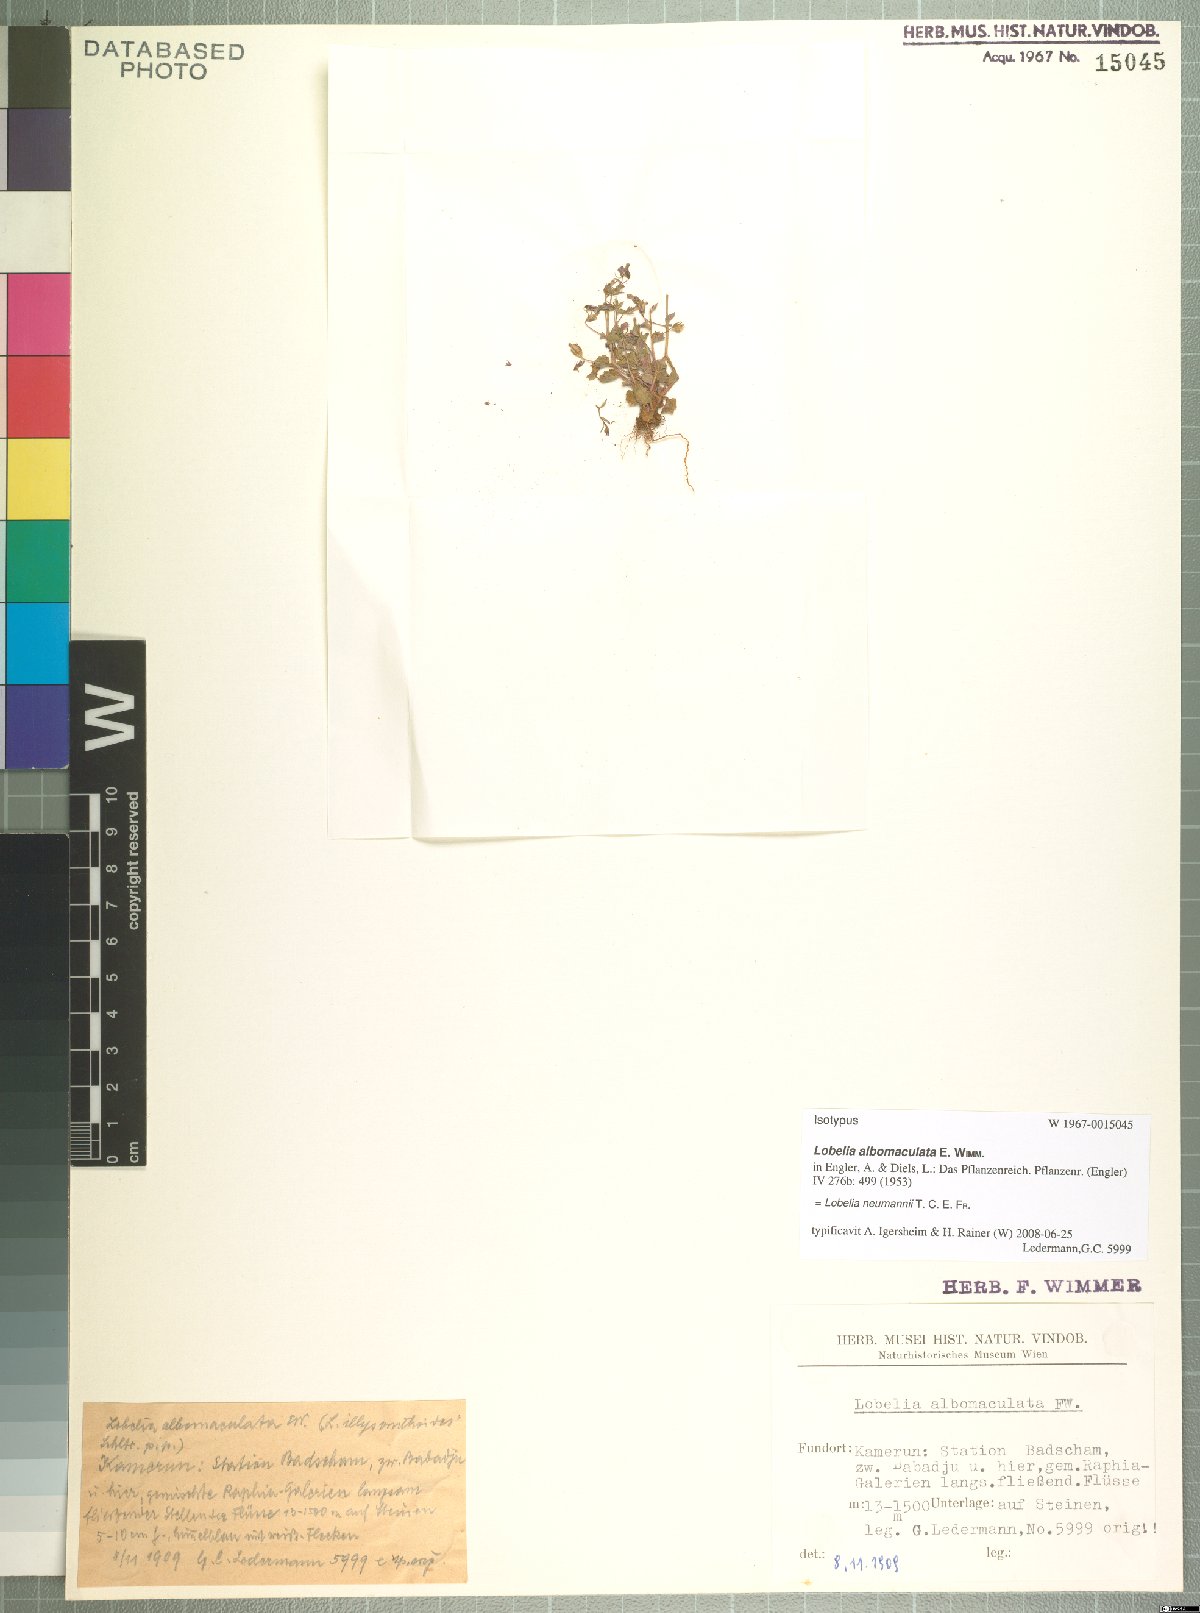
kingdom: Plantae
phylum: Tracheophyta
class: Magnoliopsida
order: Asterales
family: Campanulaceae
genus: Lobelia
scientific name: Lobelia neumannii
